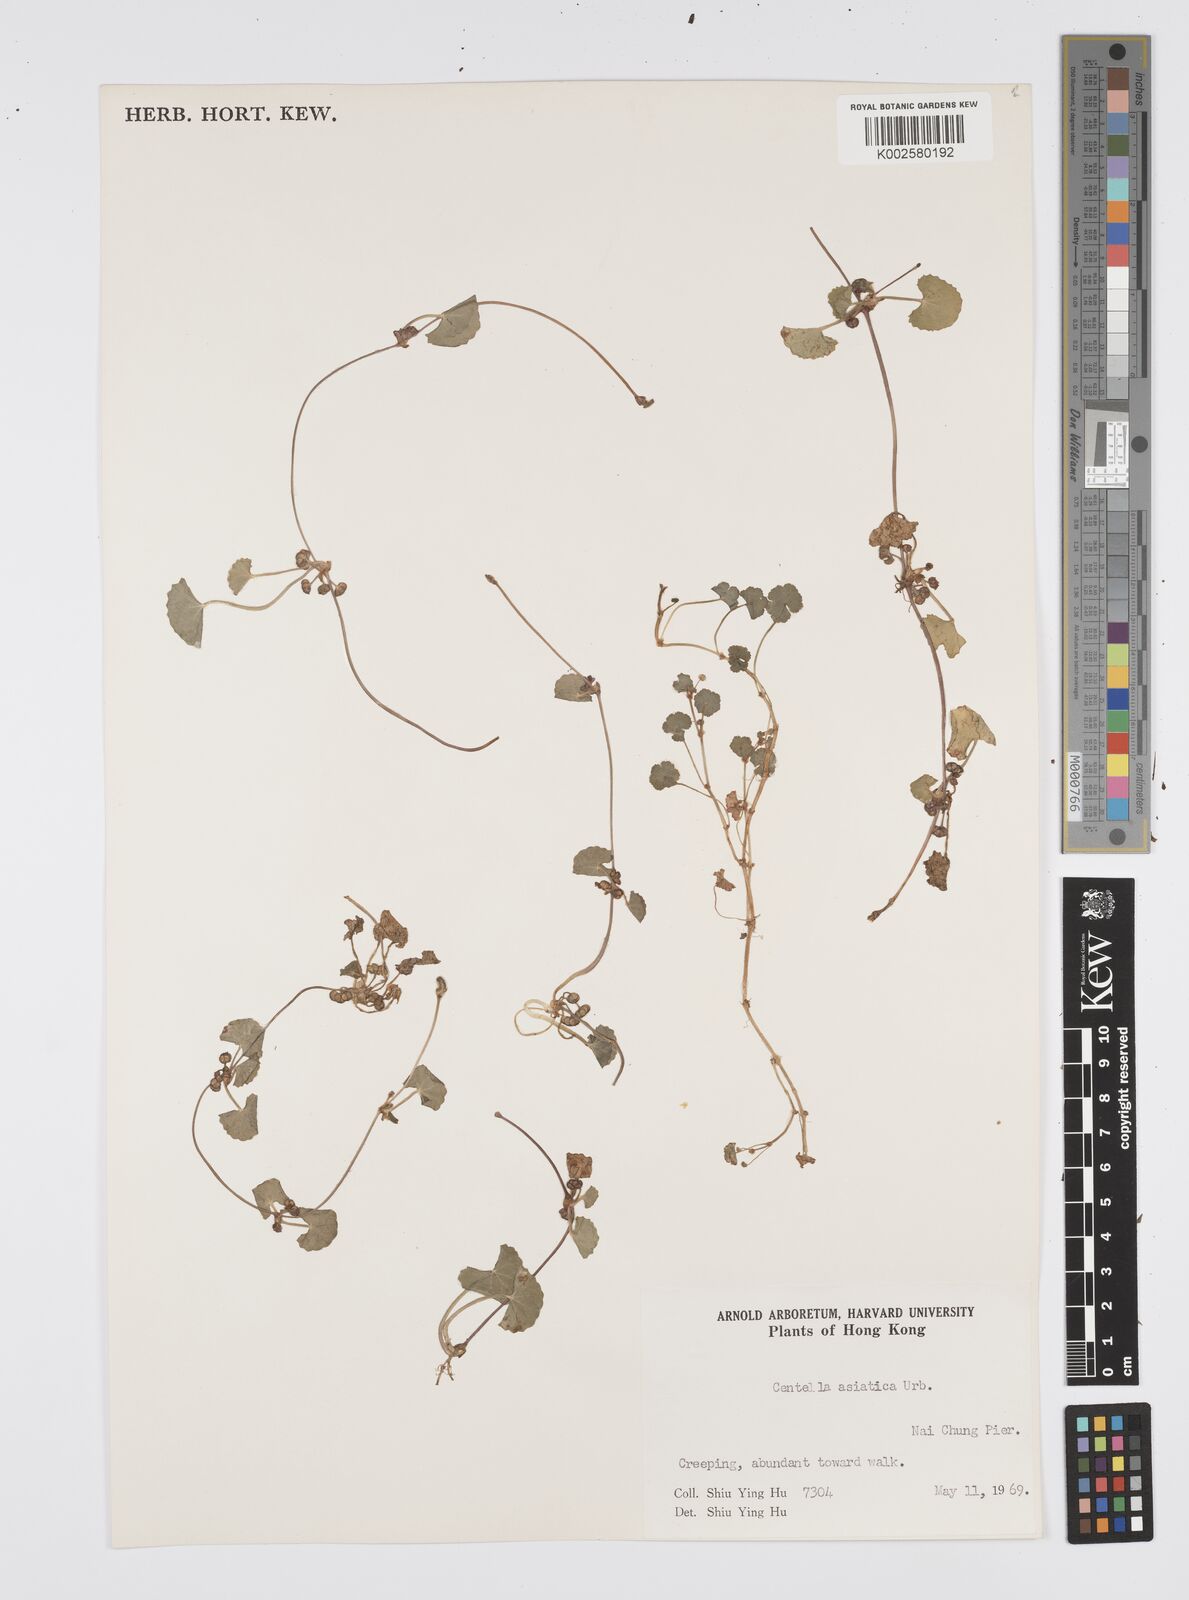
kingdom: Plantae
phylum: Tracheophyta
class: Magnoliopsida
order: Apiales
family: Apiaceae
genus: Centella
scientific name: Centella
